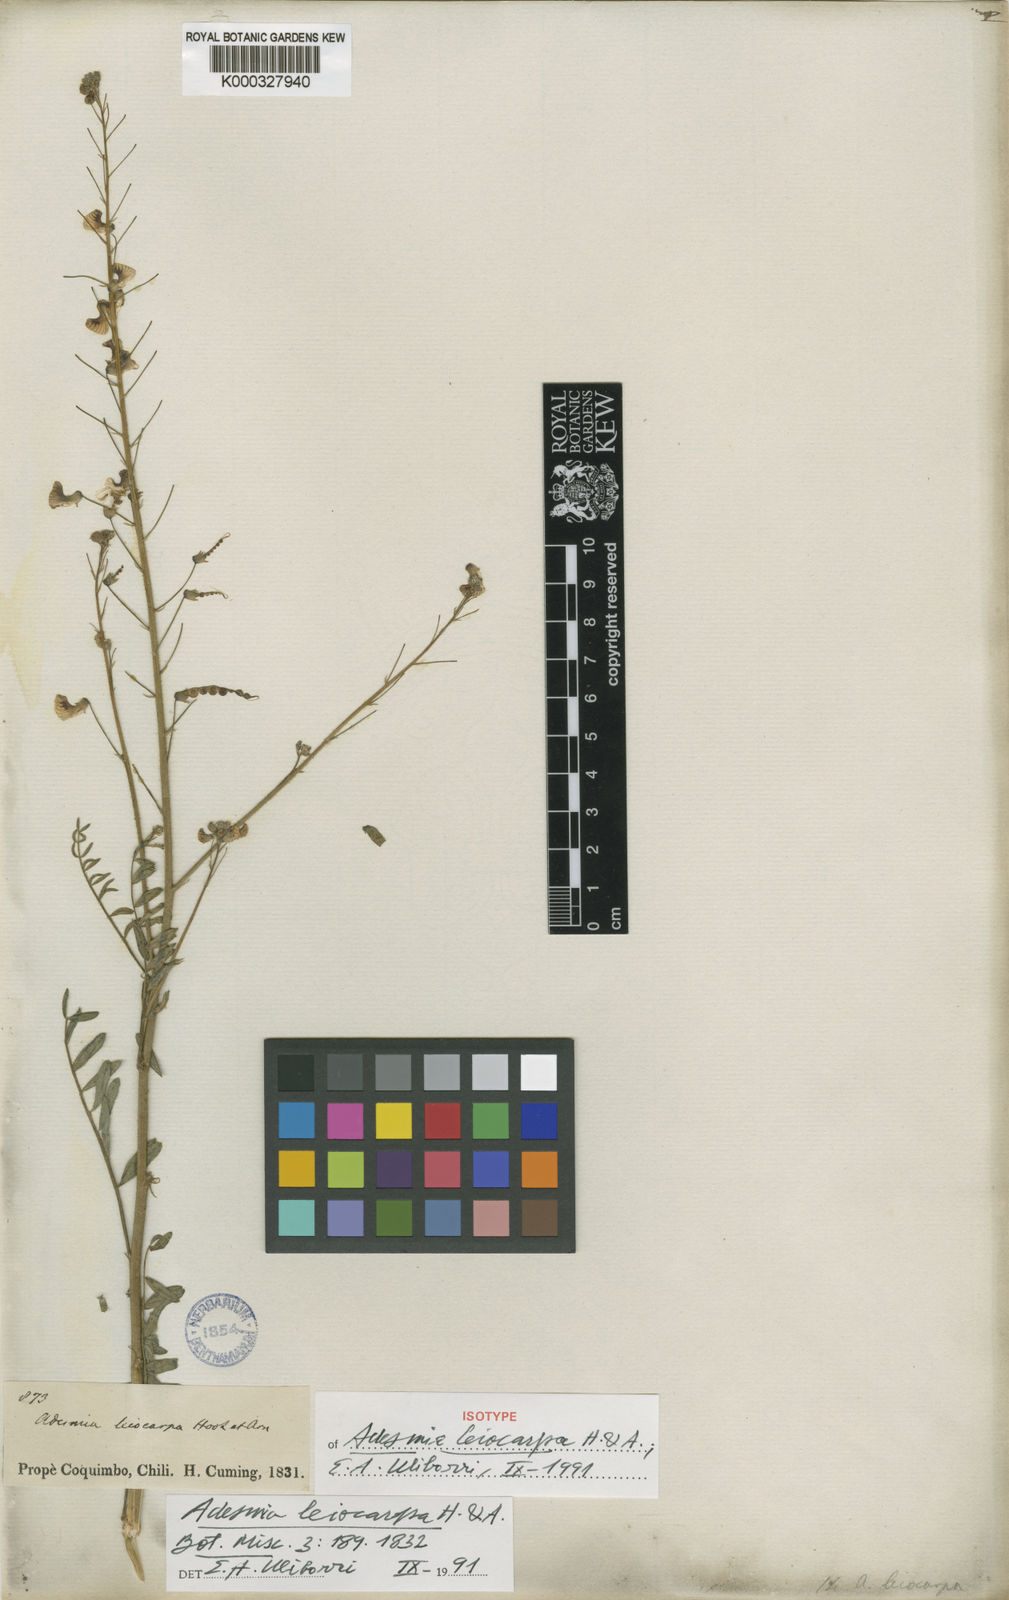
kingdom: Plantae
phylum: Tracheophyta
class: Magnoliopsida
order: Fabales
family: Fabaceae
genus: Adesmia
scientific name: Adesmia leiocarpa
